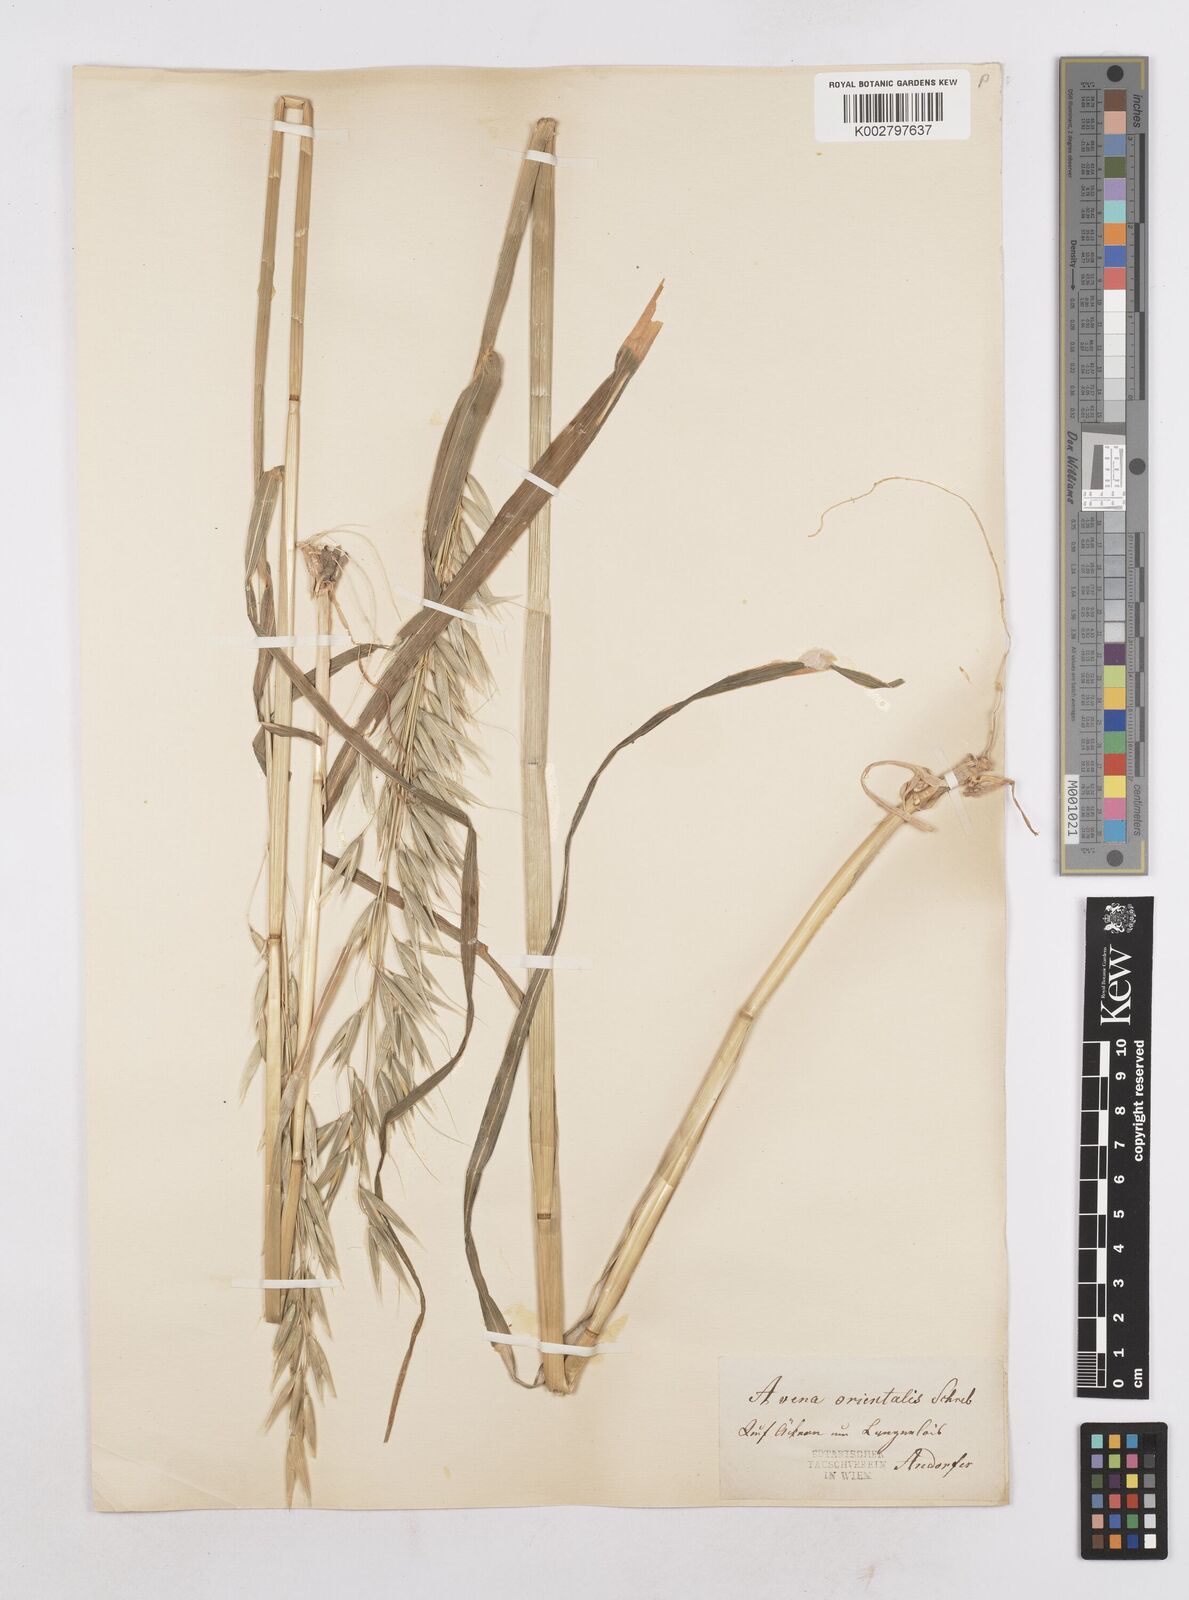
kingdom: Plantae
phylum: Tracheophyta
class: Liliopsida
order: Poales
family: Poaceae
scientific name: Poaceae
